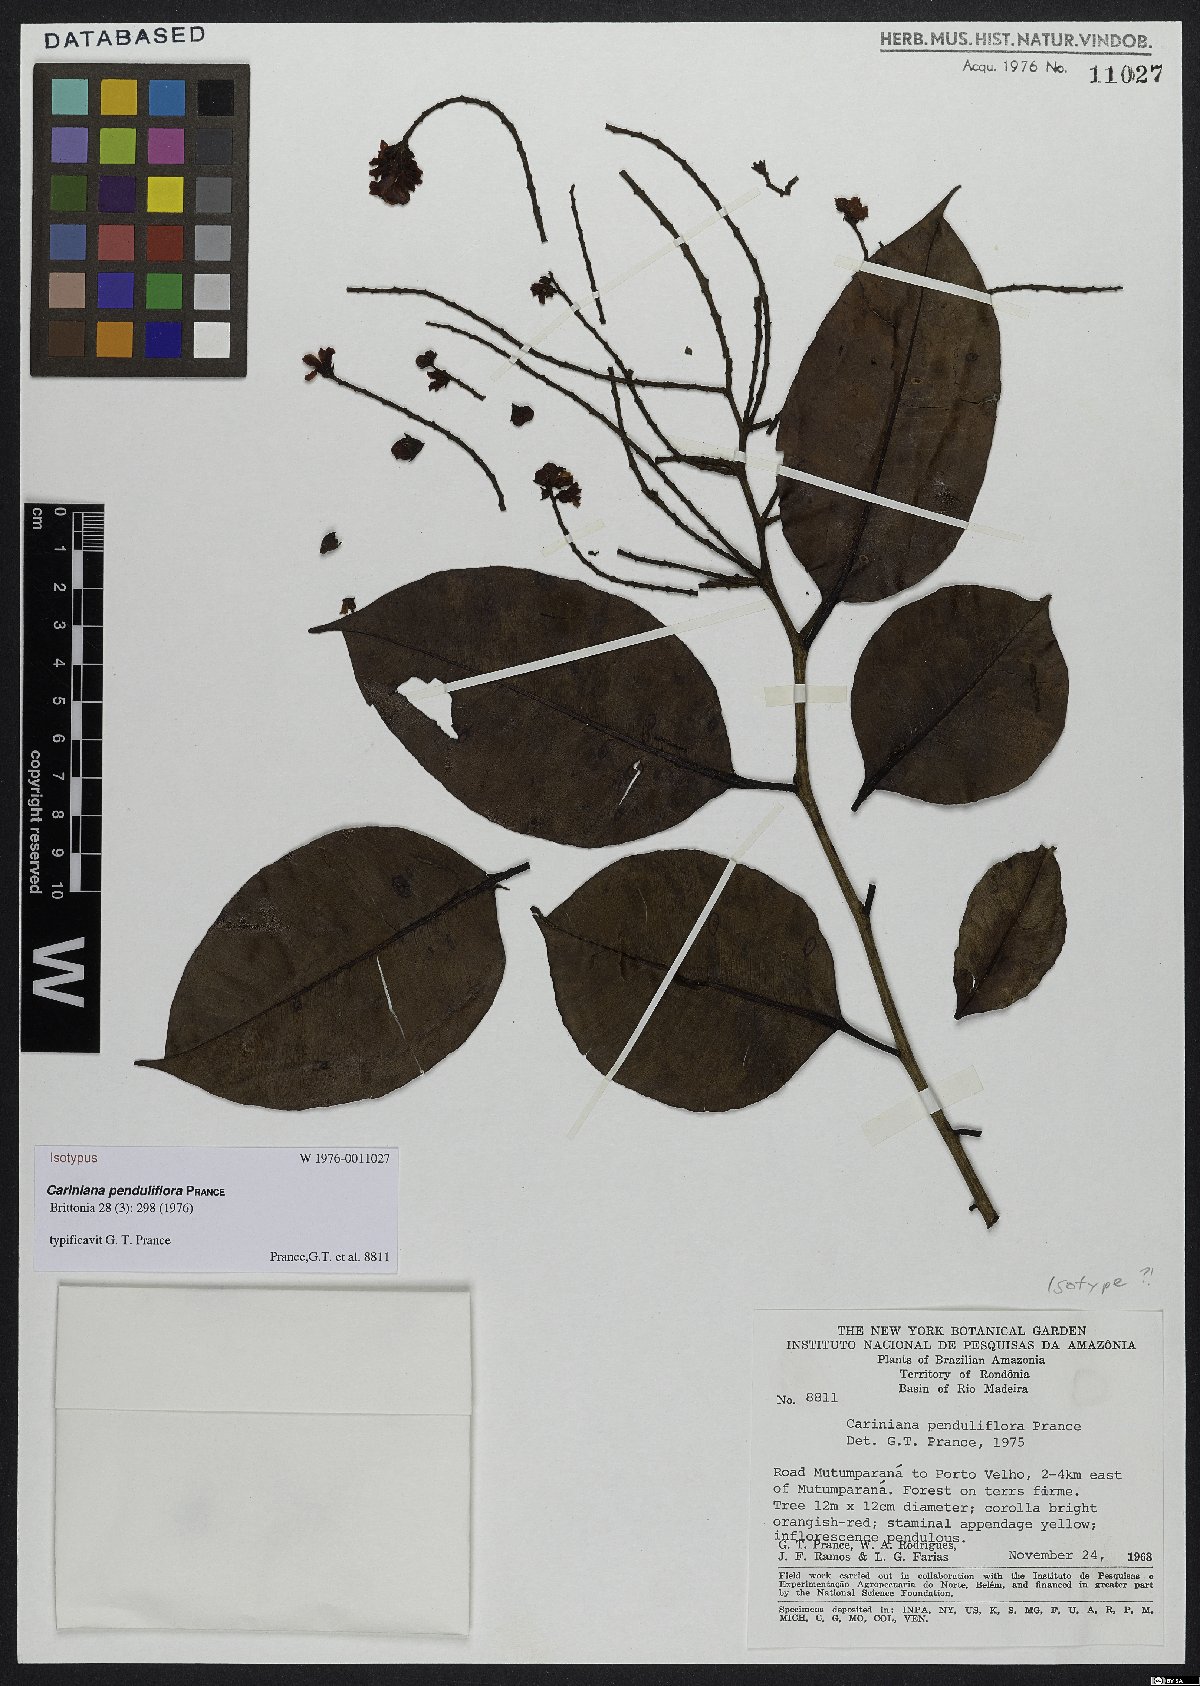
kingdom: Plantae
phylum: Tracheophyta
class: Magnoliopsida
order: Ericales
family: Lecythidaceae
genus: Cariniana
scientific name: Cariniana penduliflora
